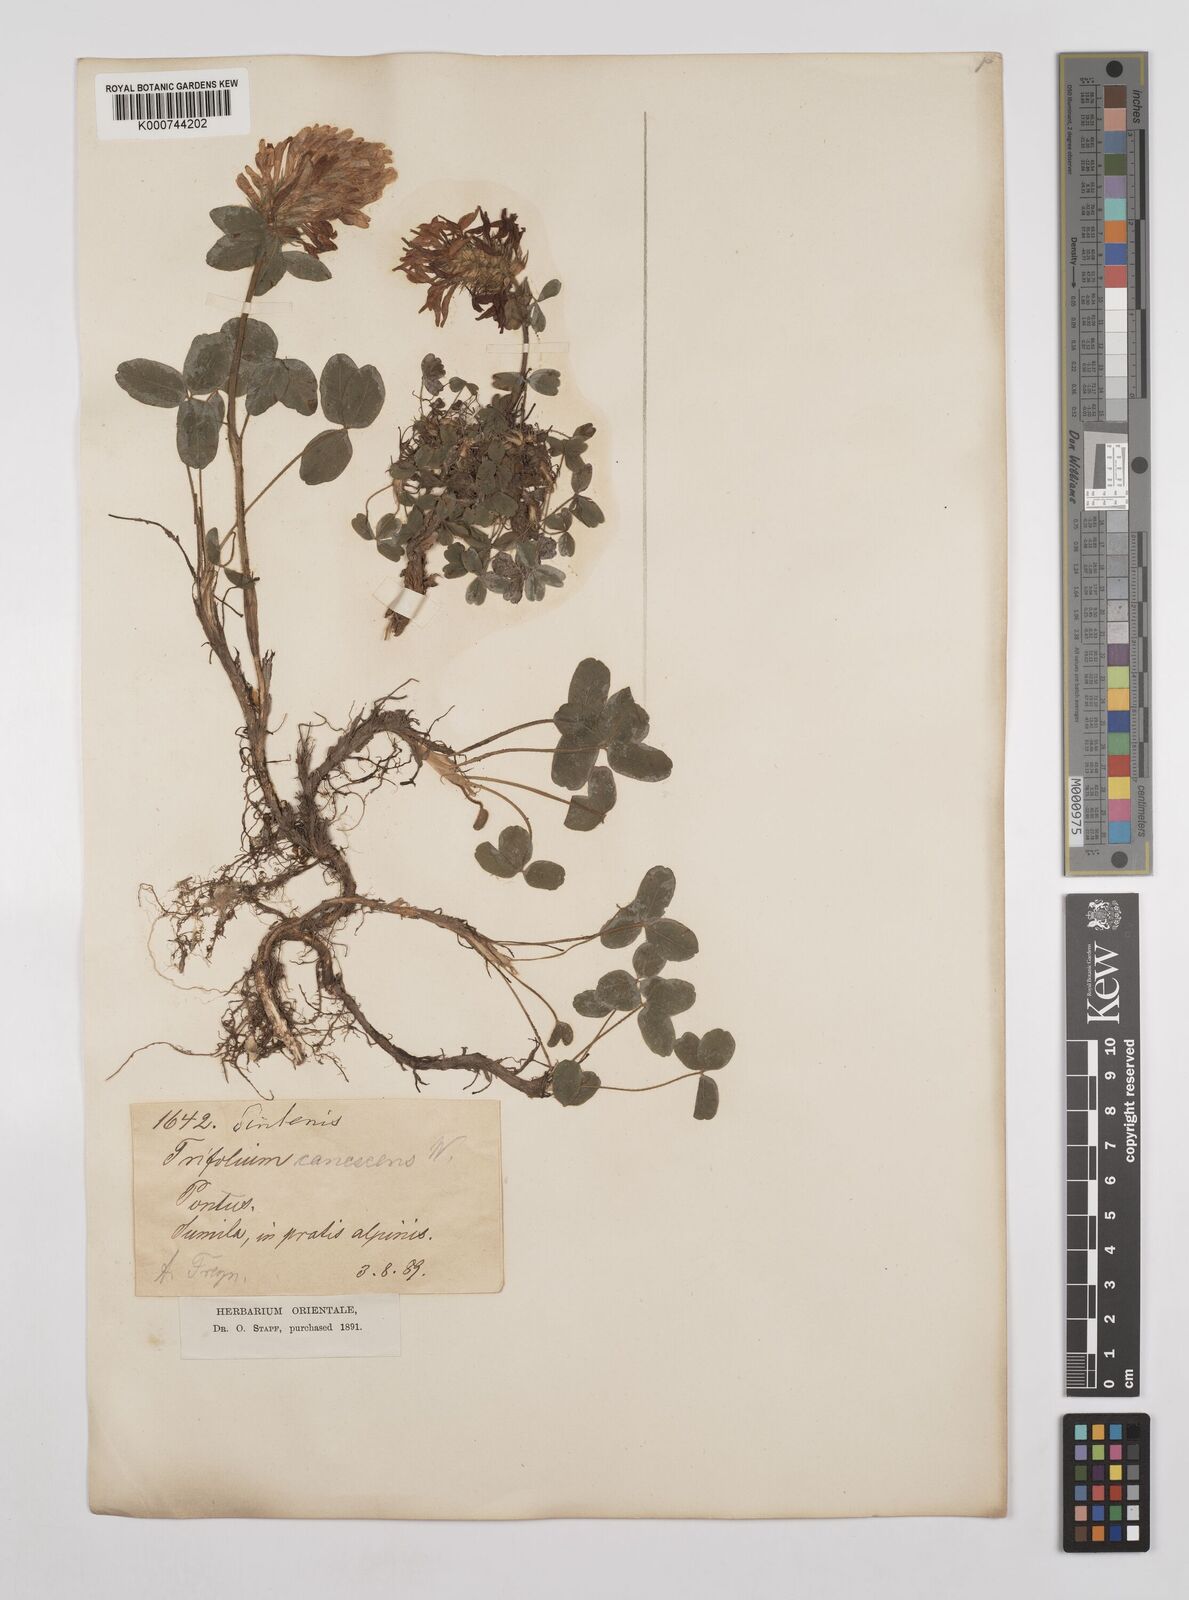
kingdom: Plantae
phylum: Tracheophyta
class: Magnoliopsida
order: Fabales
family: Fabaceae
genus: Trifolium
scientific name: Trifolium canescens
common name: Graying clover
